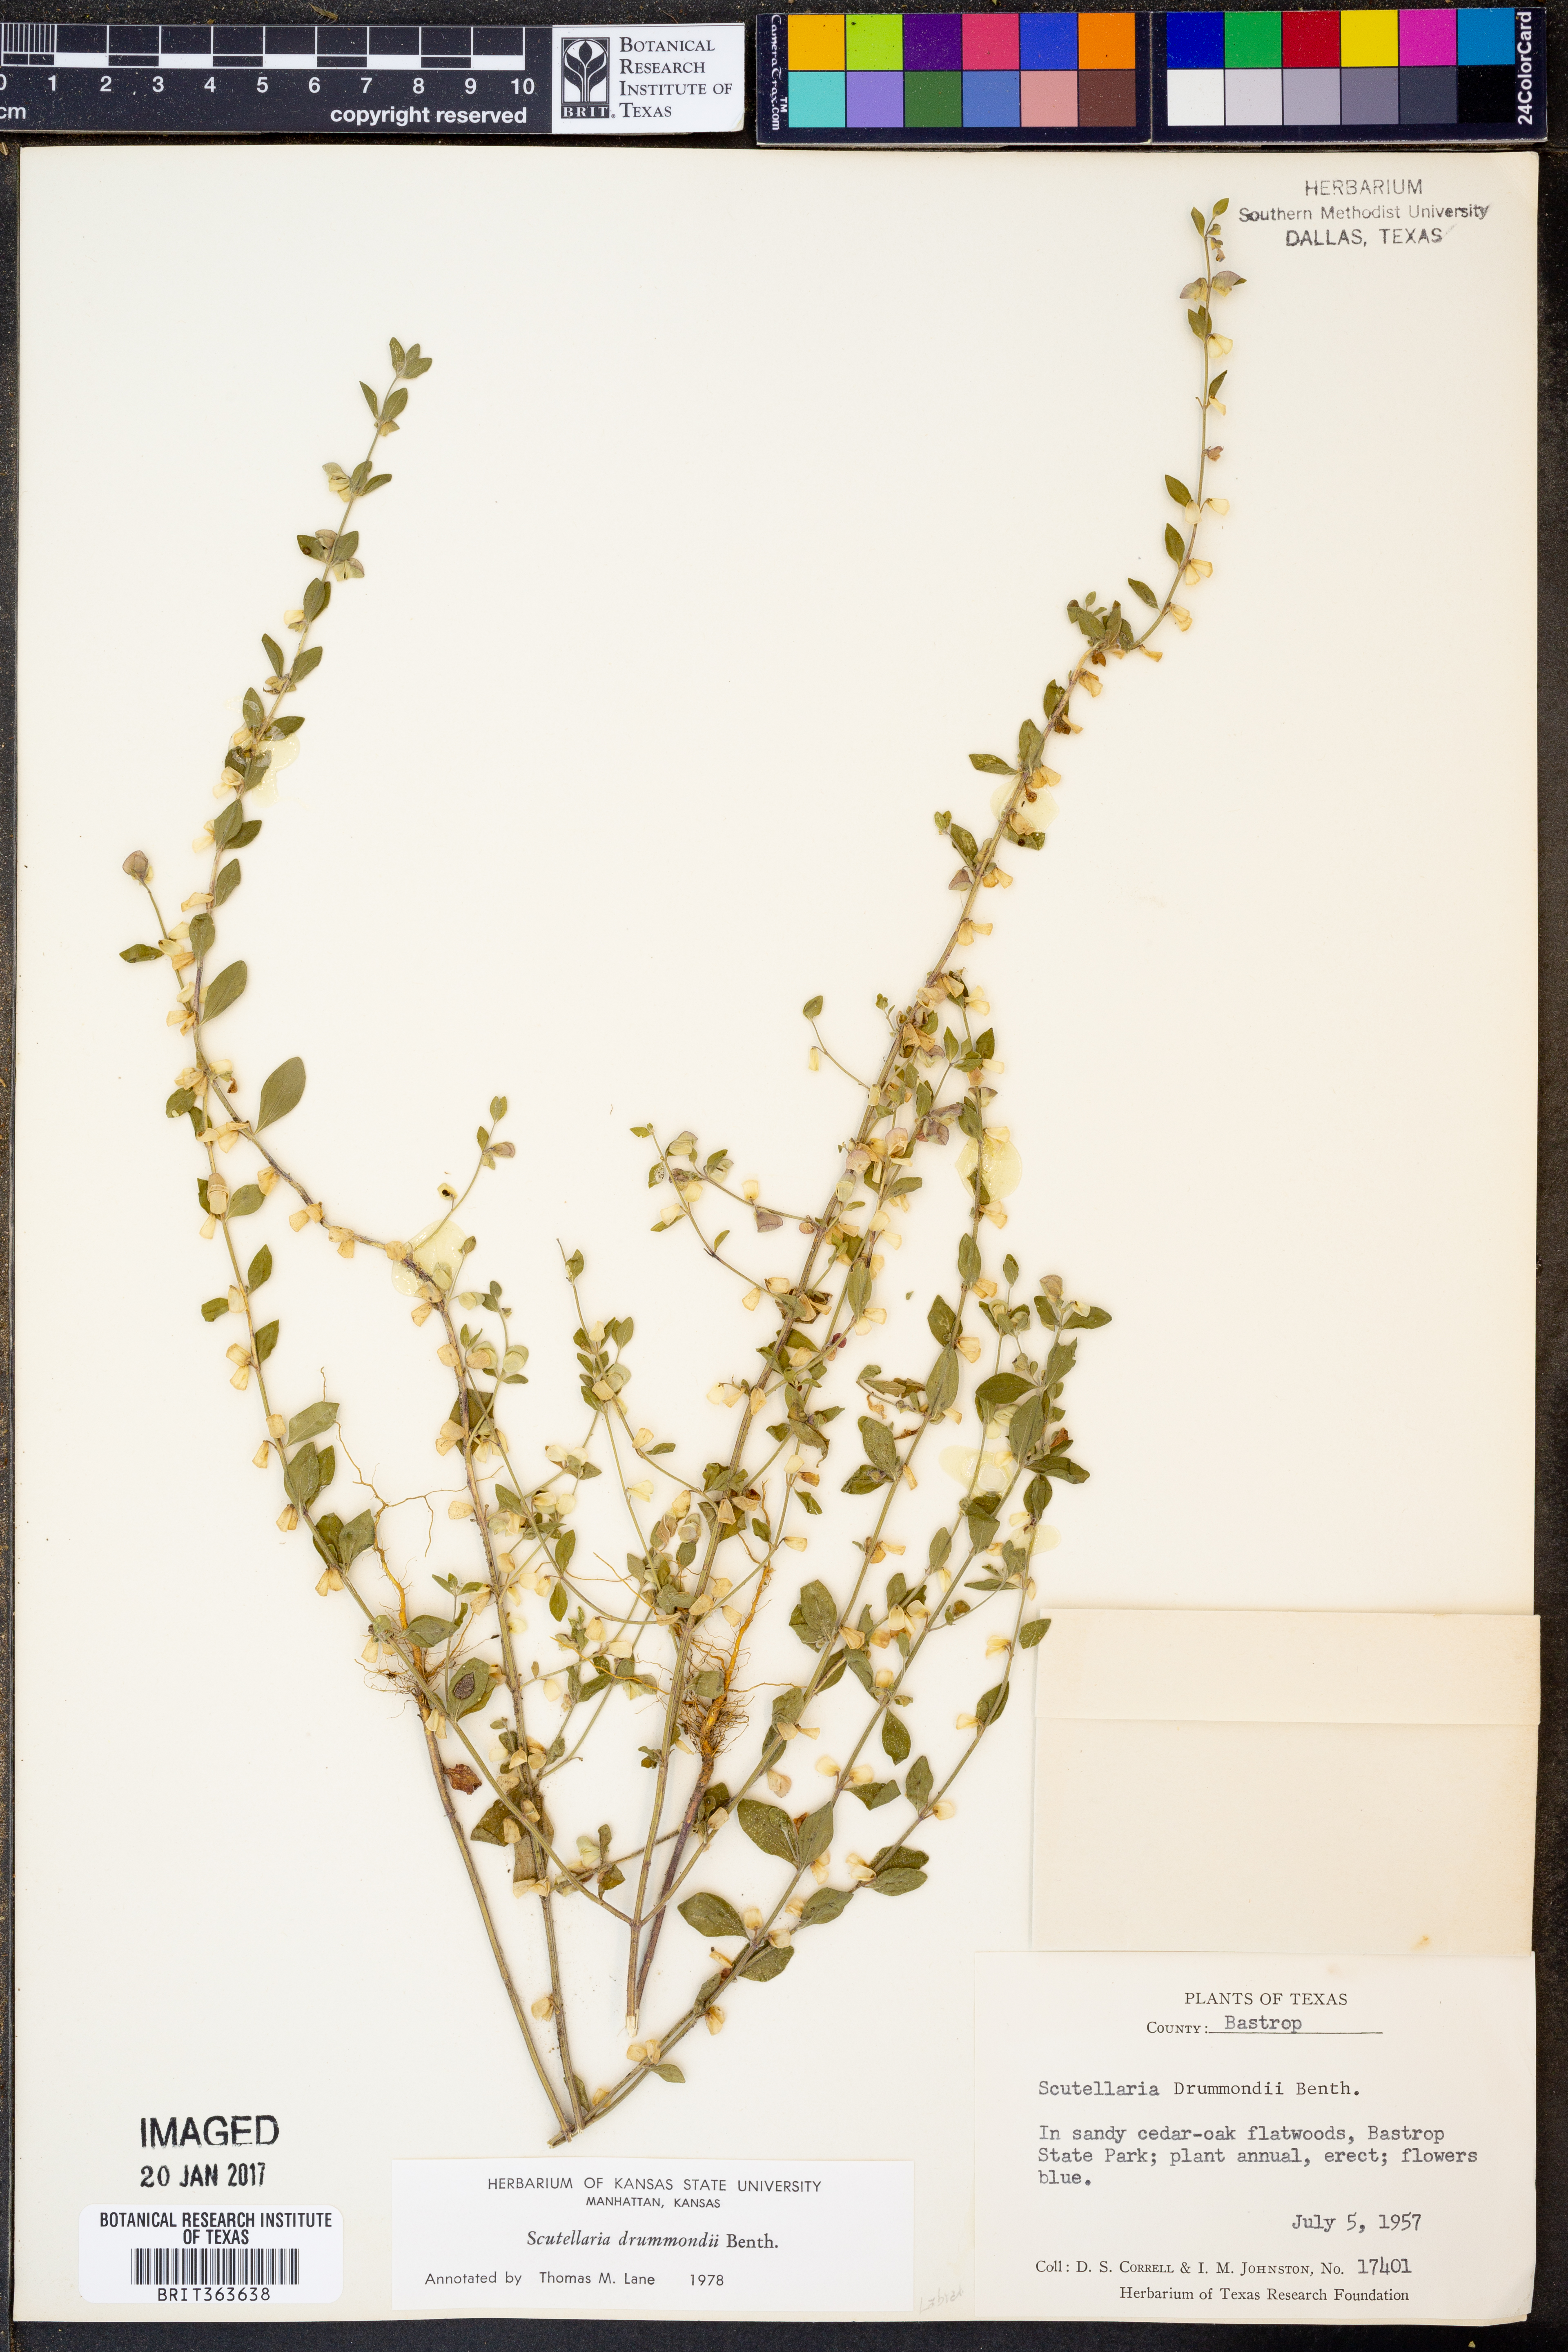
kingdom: Plantae
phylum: Tracheophyta
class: Magnoliopsida
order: Lamiales
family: Lamiaceae
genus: Scutellaria
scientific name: Scutellaria drummondii
